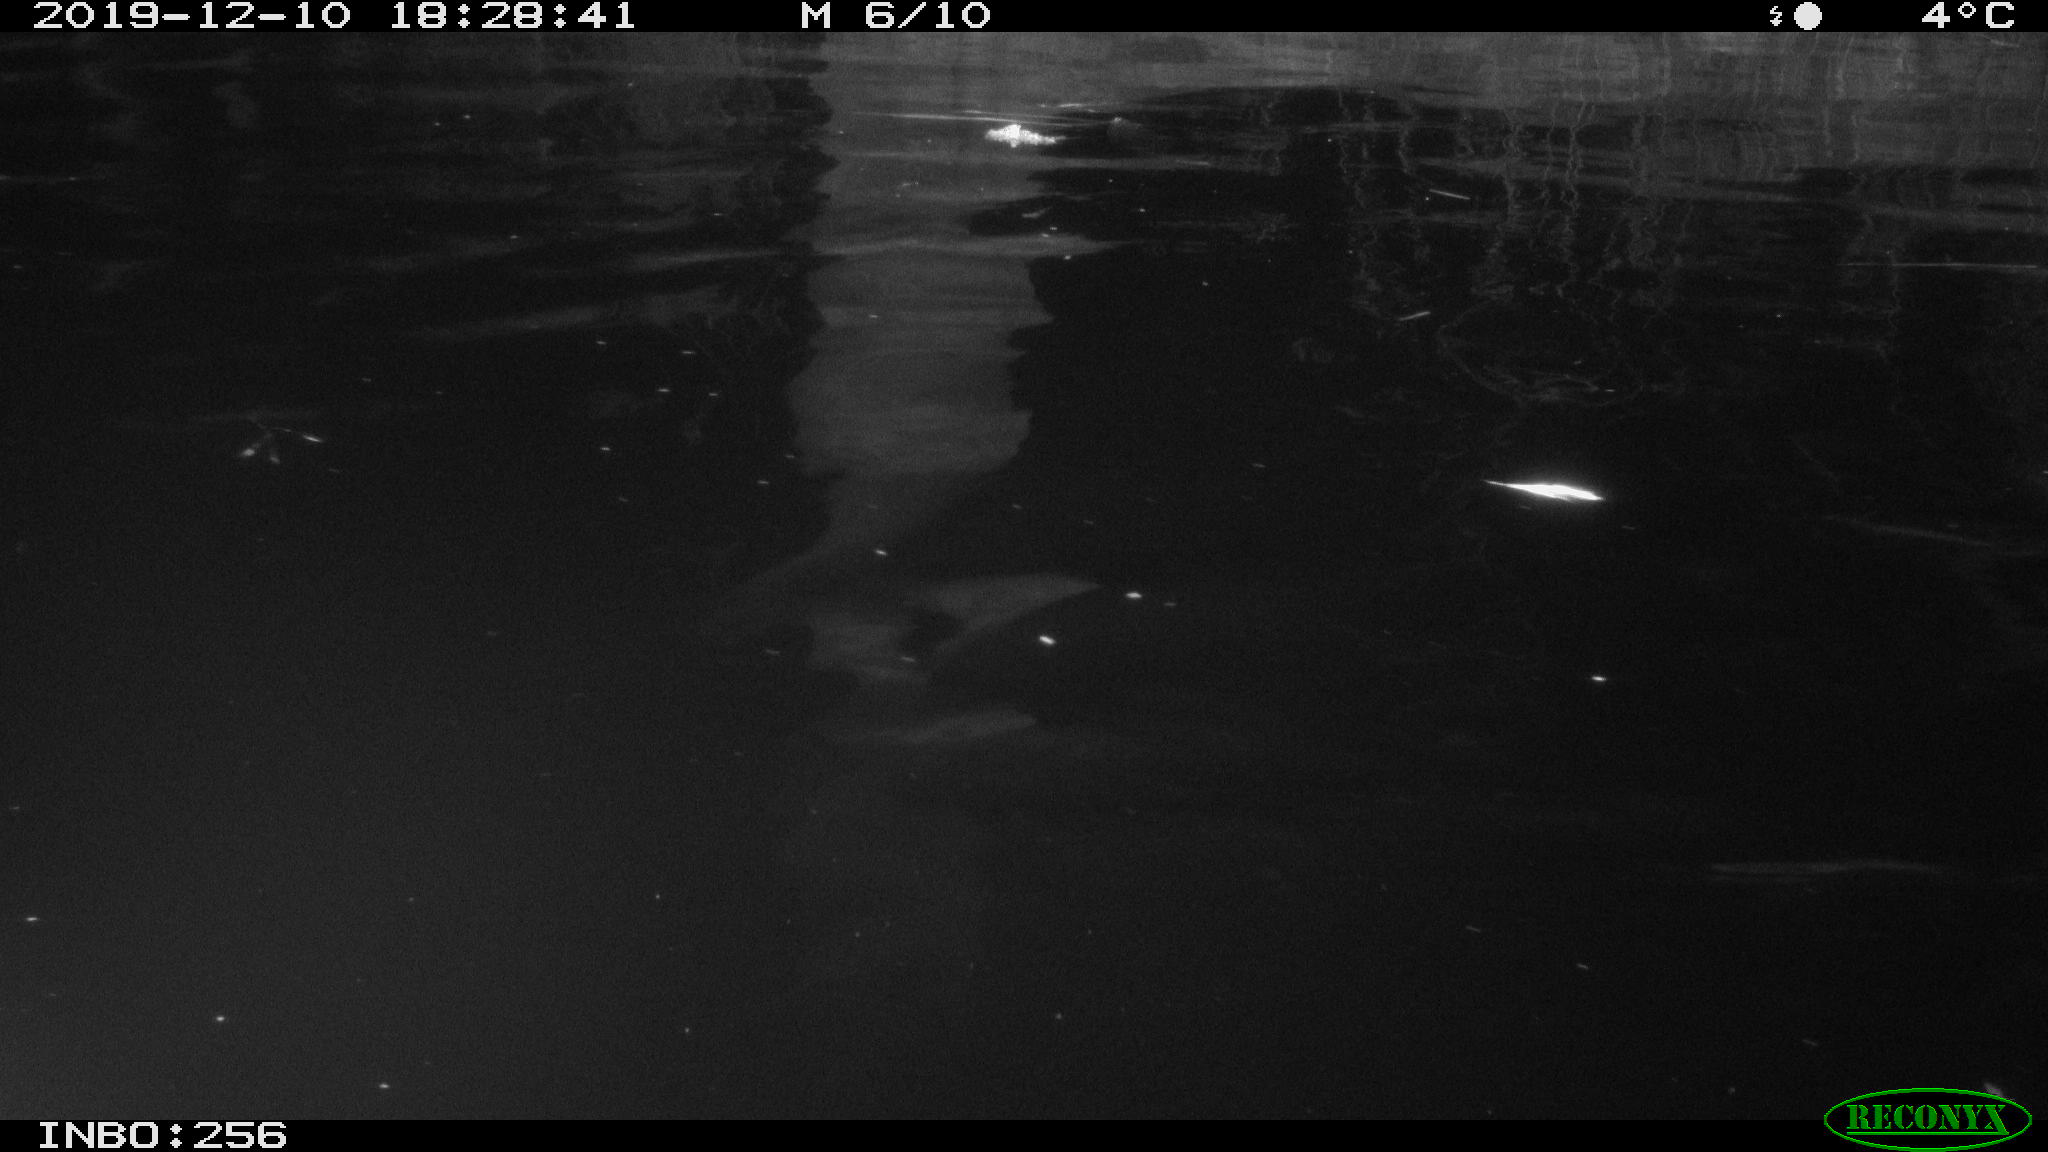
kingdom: Animalia
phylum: Chordata
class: Mammalia
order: Rodentia
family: Muridae
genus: Rattus
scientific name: Rattus norvegicus
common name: Brown rat
